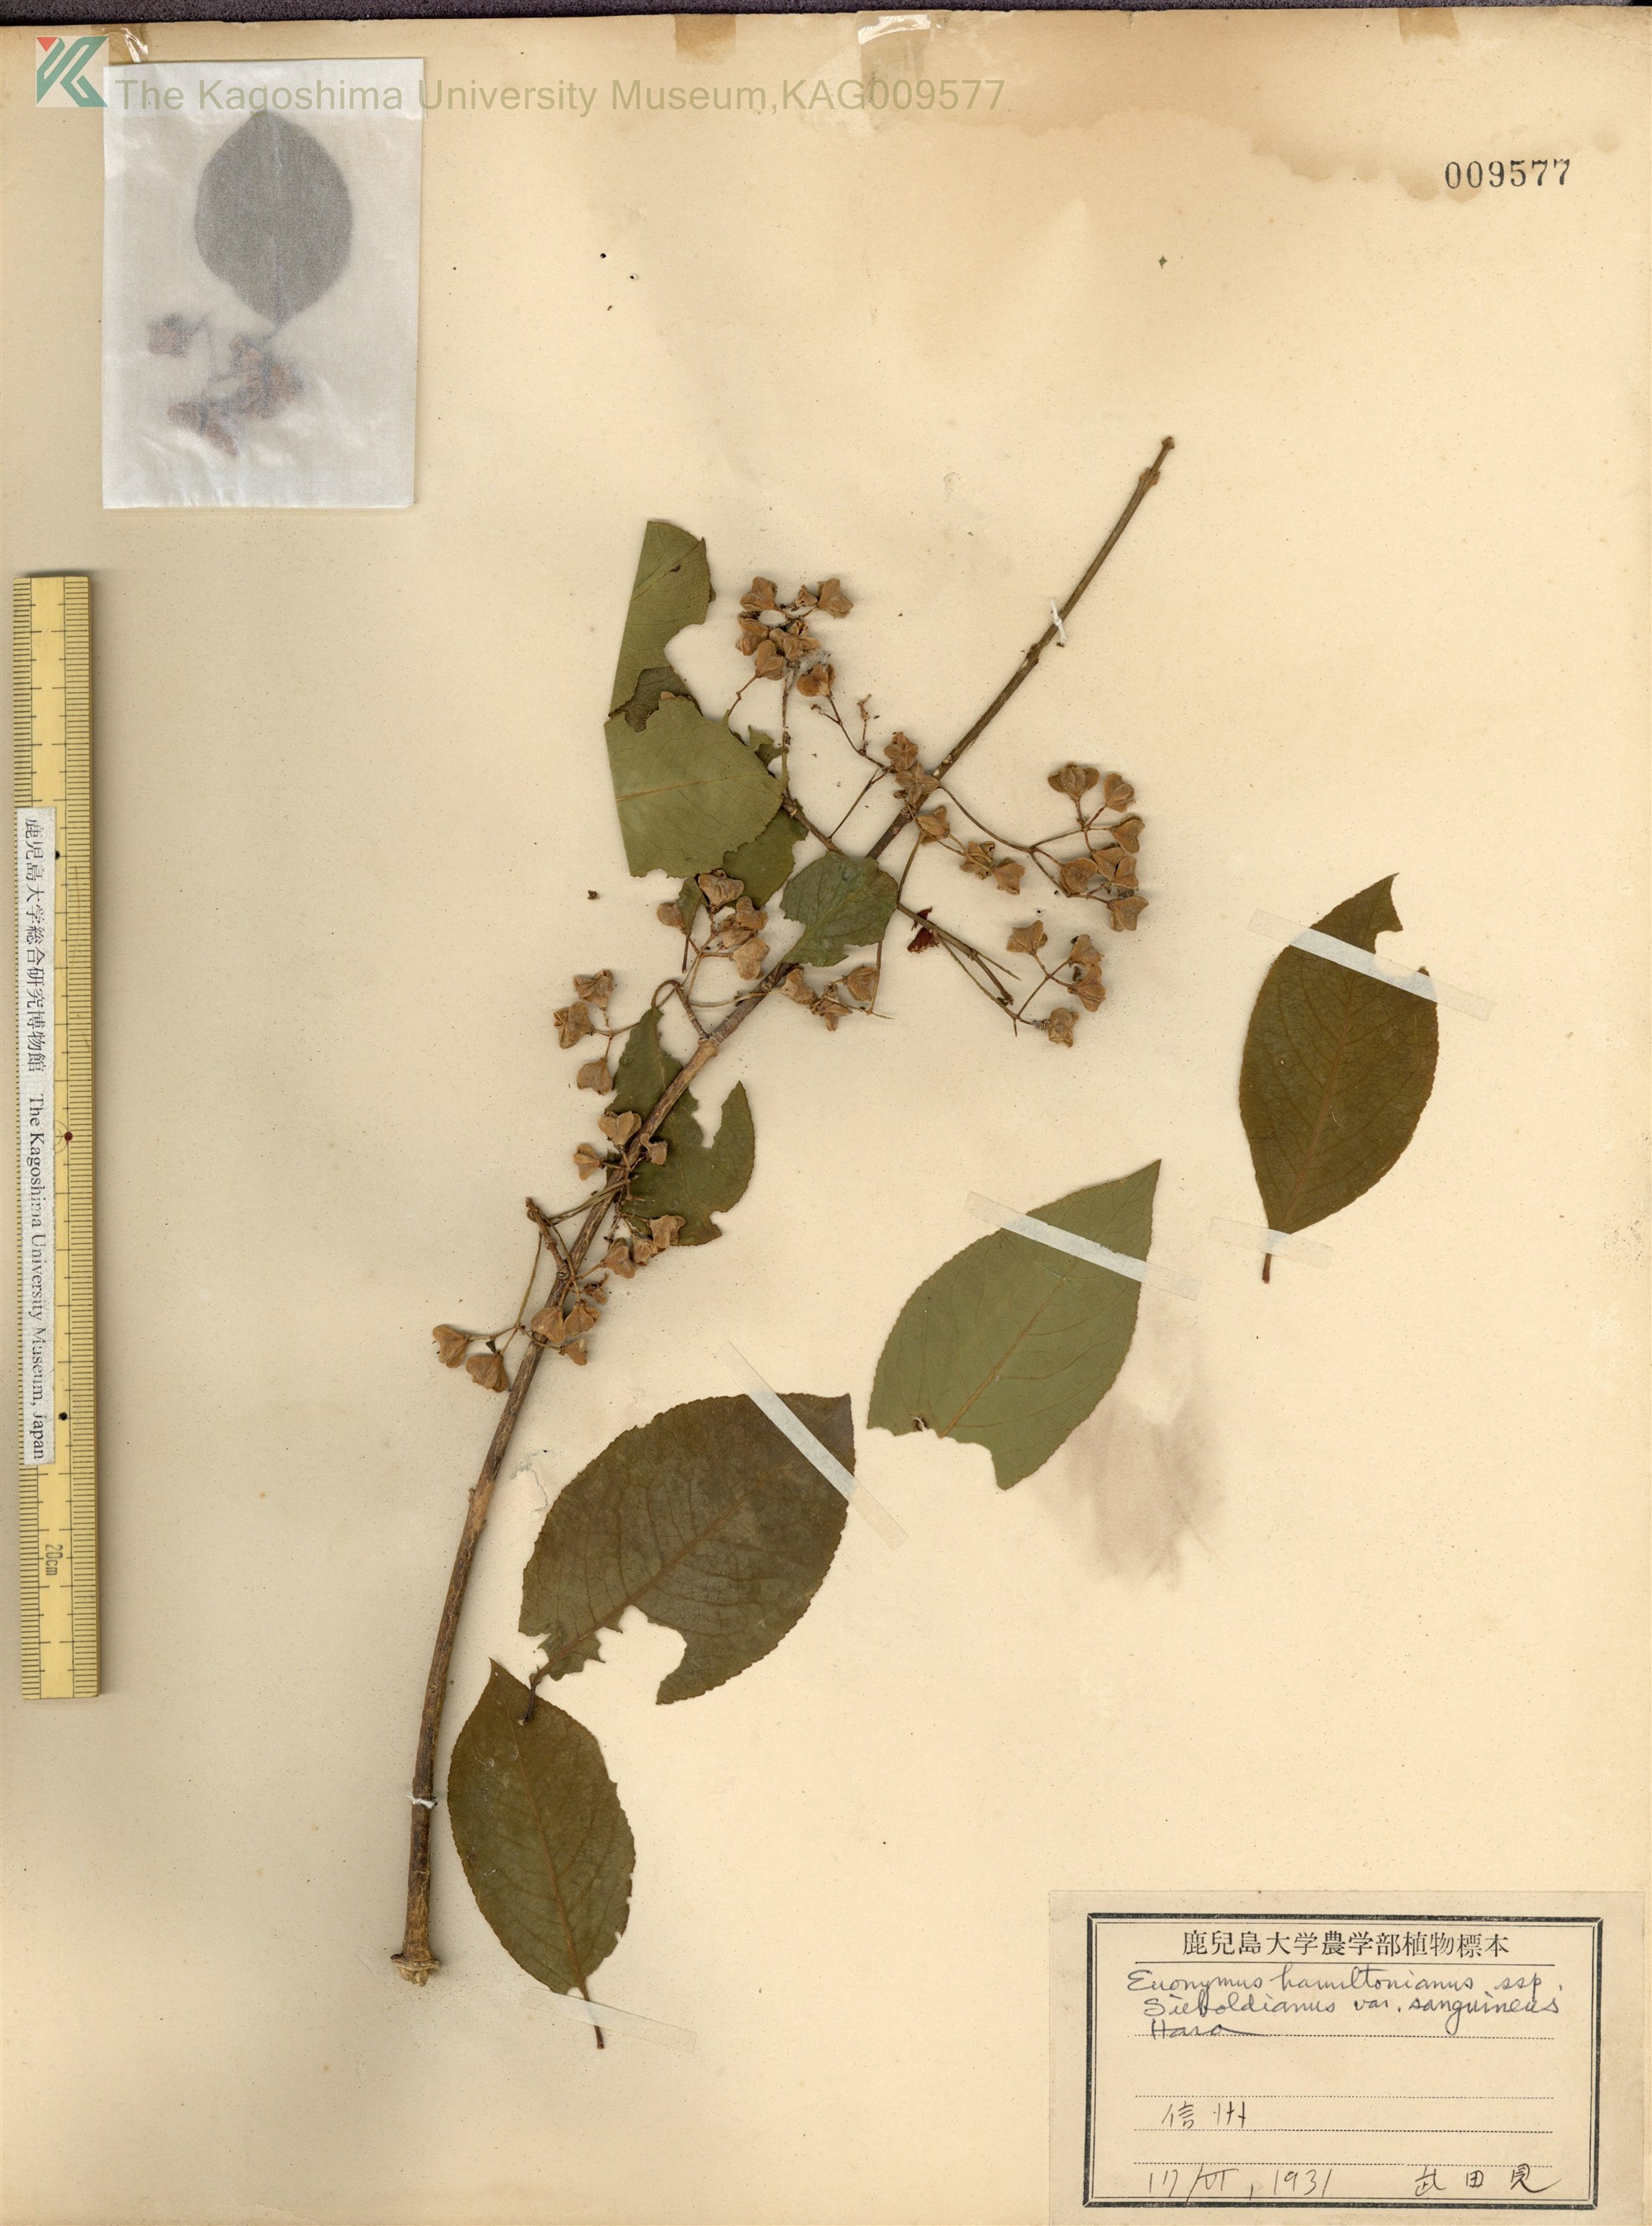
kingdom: Plantae
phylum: Tracheophyta
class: Magnoliopsida
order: Celastrales
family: Celastraceae
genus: Euonymus
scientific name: Euonymus hamiltonianus
